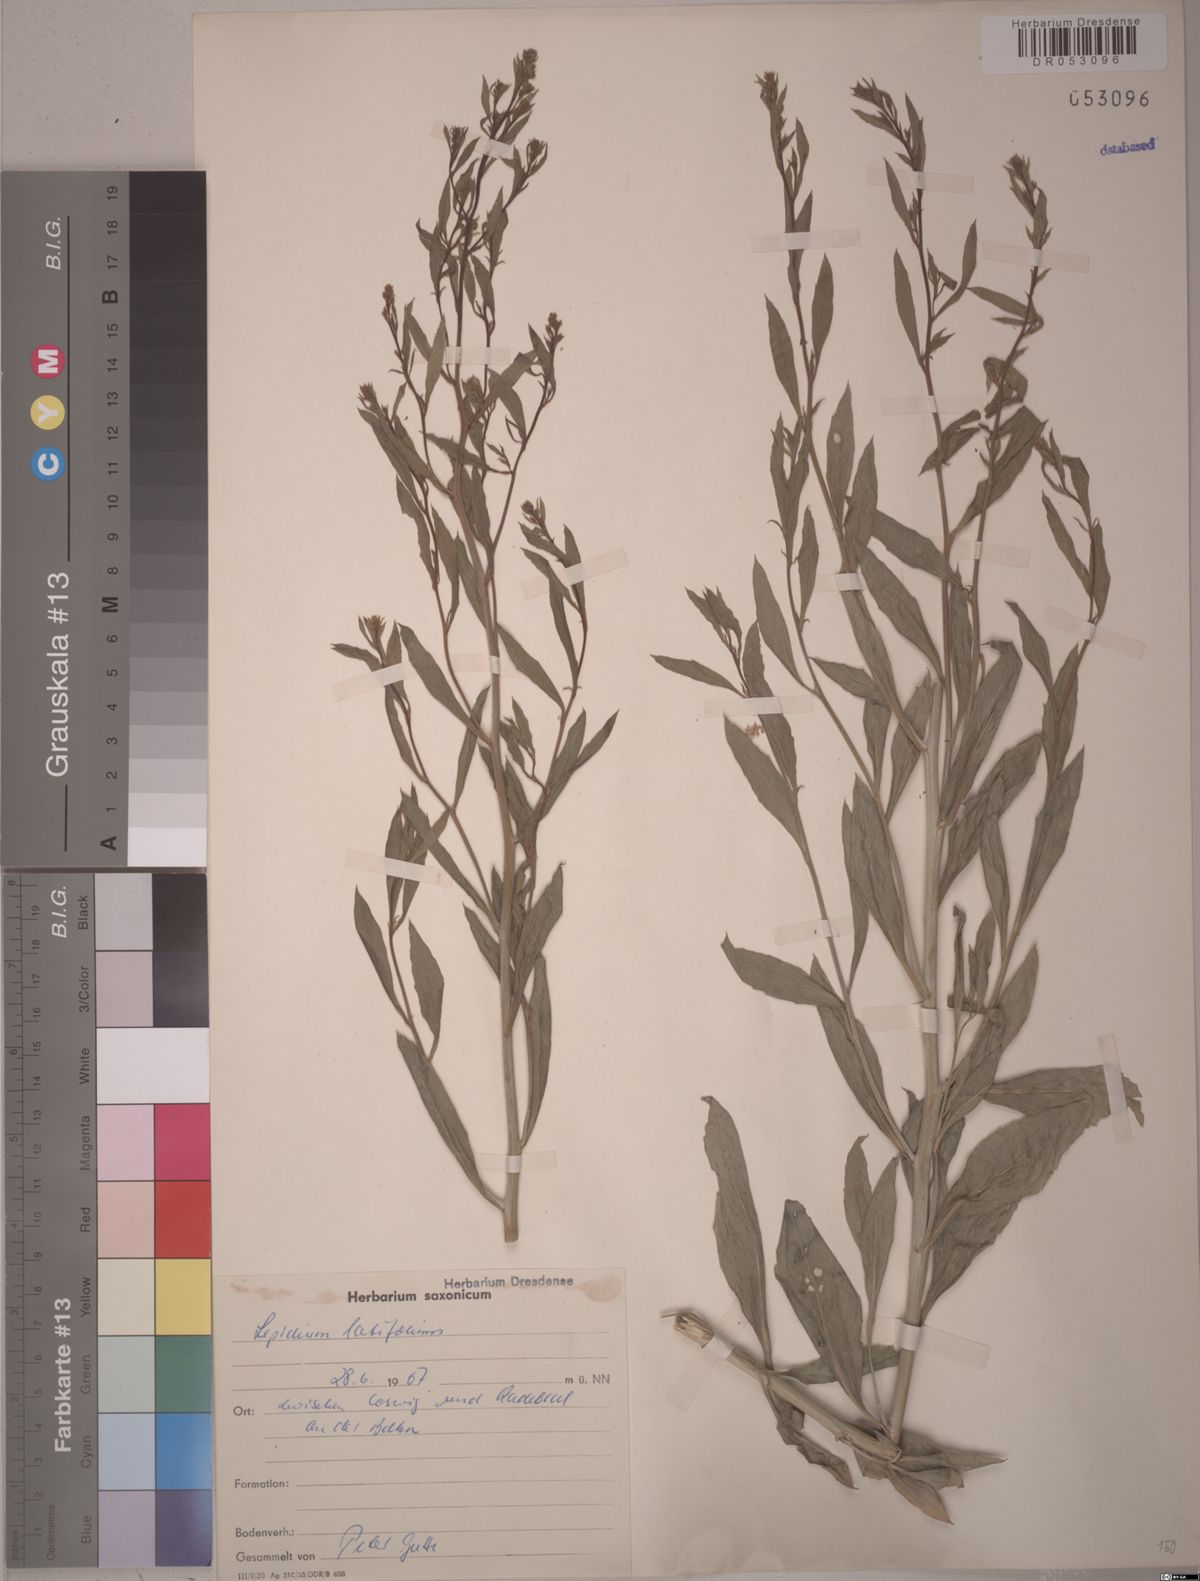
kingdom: Plantae
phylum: Tracheophyta
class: Magnoliopsida
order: Brassicales
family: Brassicaceae
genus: Lepidium
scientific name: Lepidium latifolium
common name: Dittander
